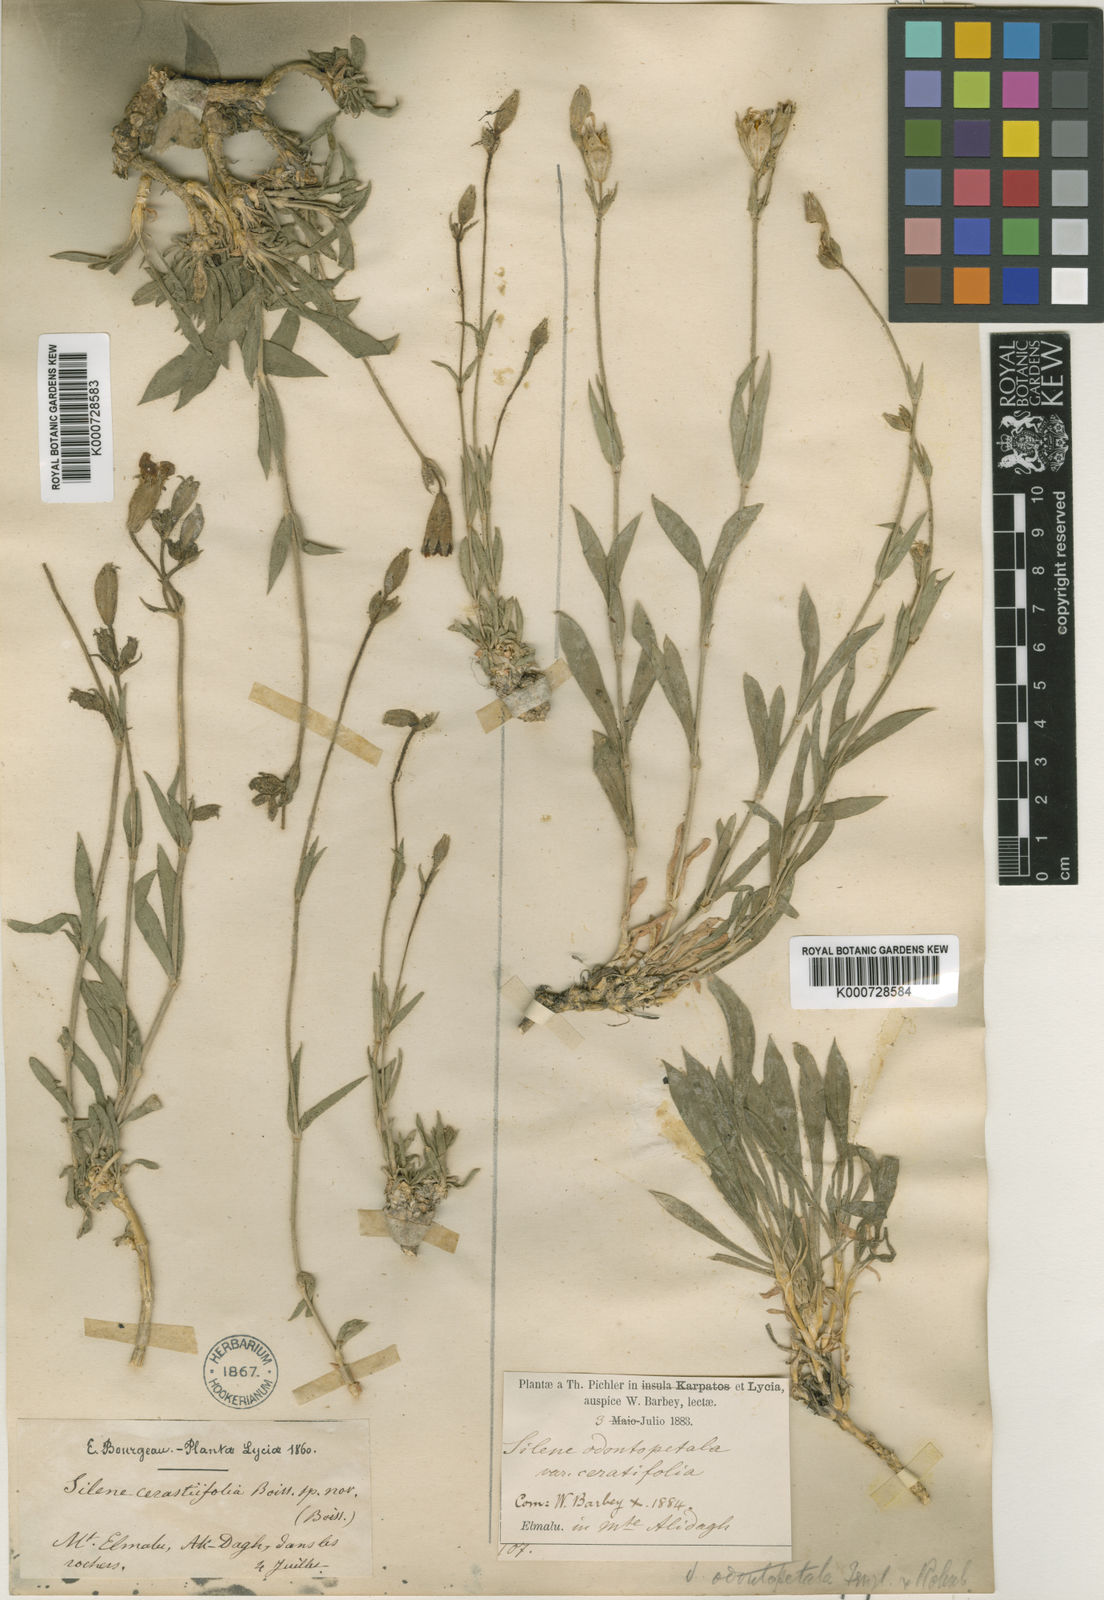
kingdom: Plantae
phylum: Tracheophyta
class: Magnoliopsida
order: Caryophyllales
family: Caryophyllaceae
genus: Silene
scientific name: Silene
